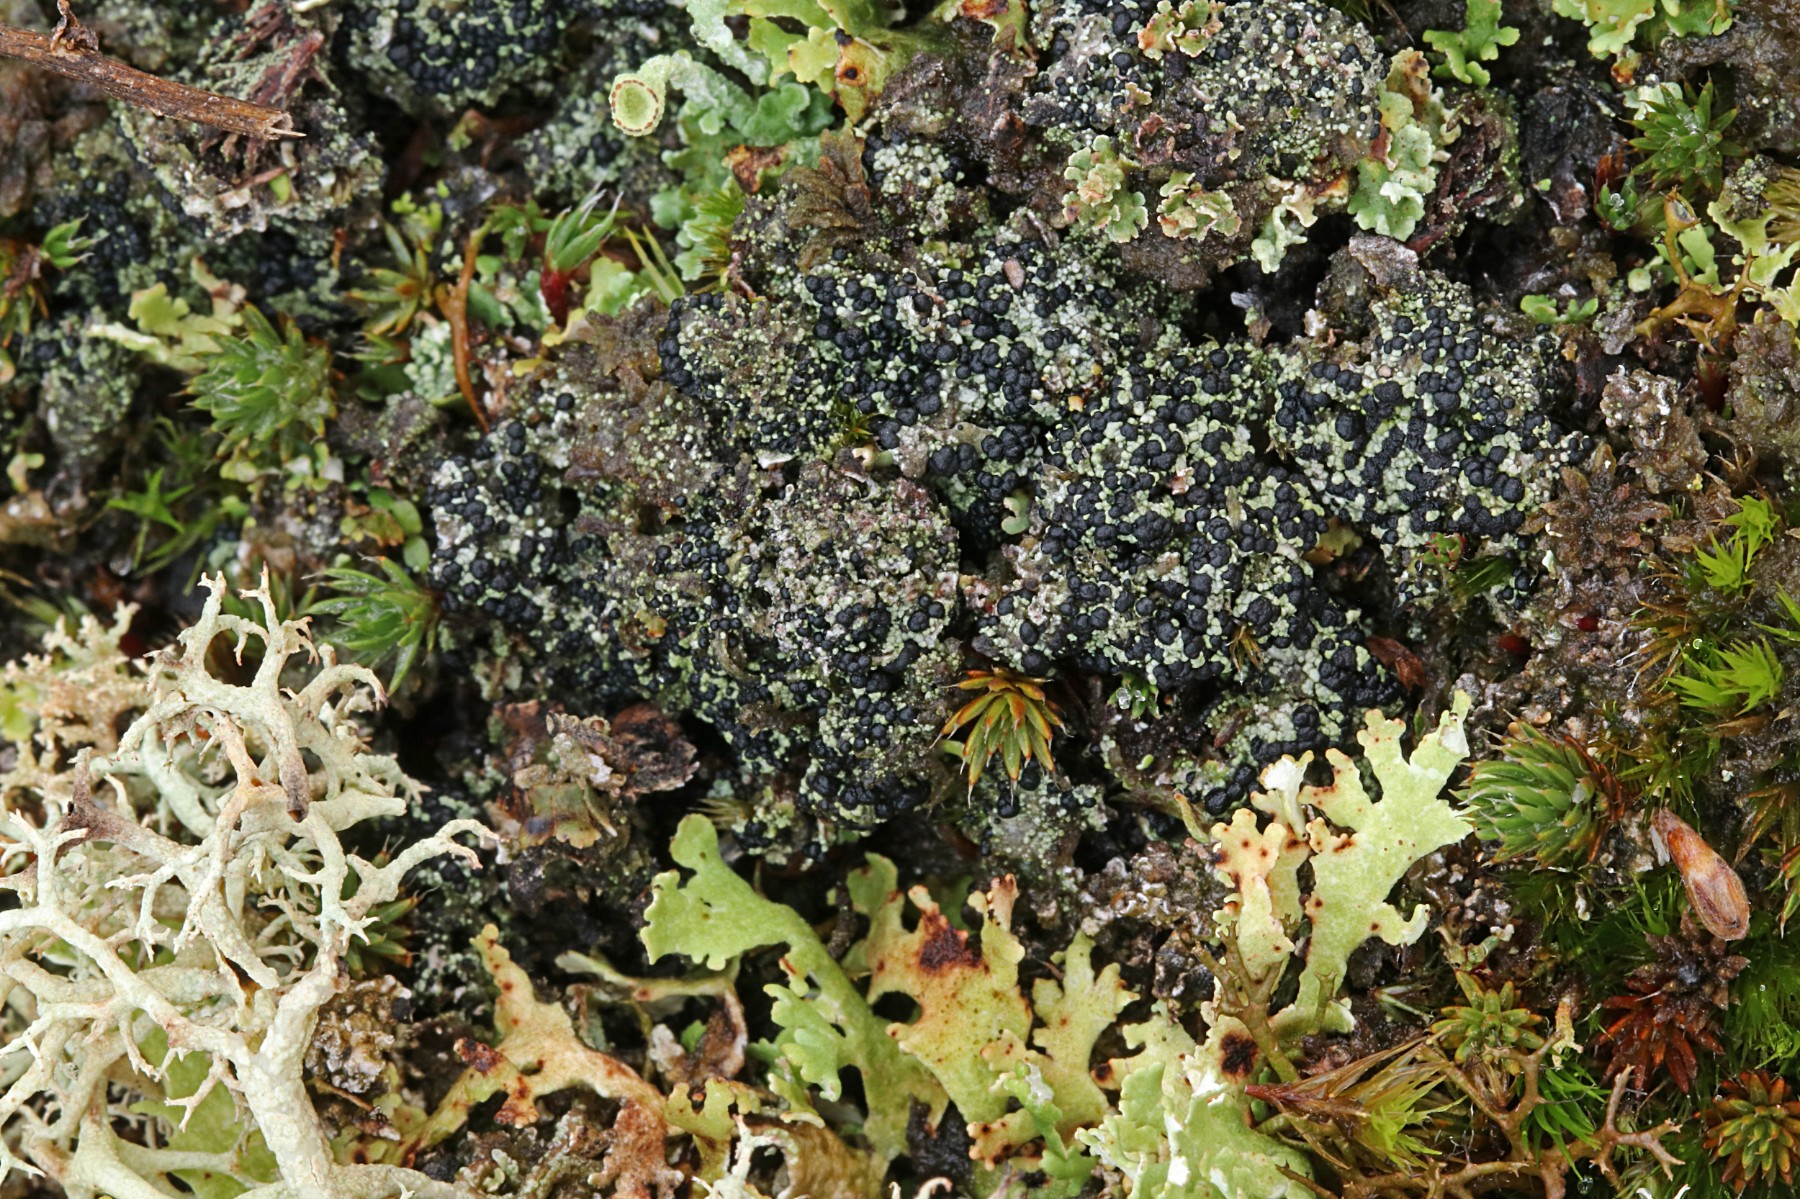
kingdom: Fungi
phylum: Ascomycota
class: Lecanoromycetes
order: Lecanorales
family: Byssolomataceae
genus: Micarea
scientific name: Micarea lignaria
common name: tørve-knaplav
